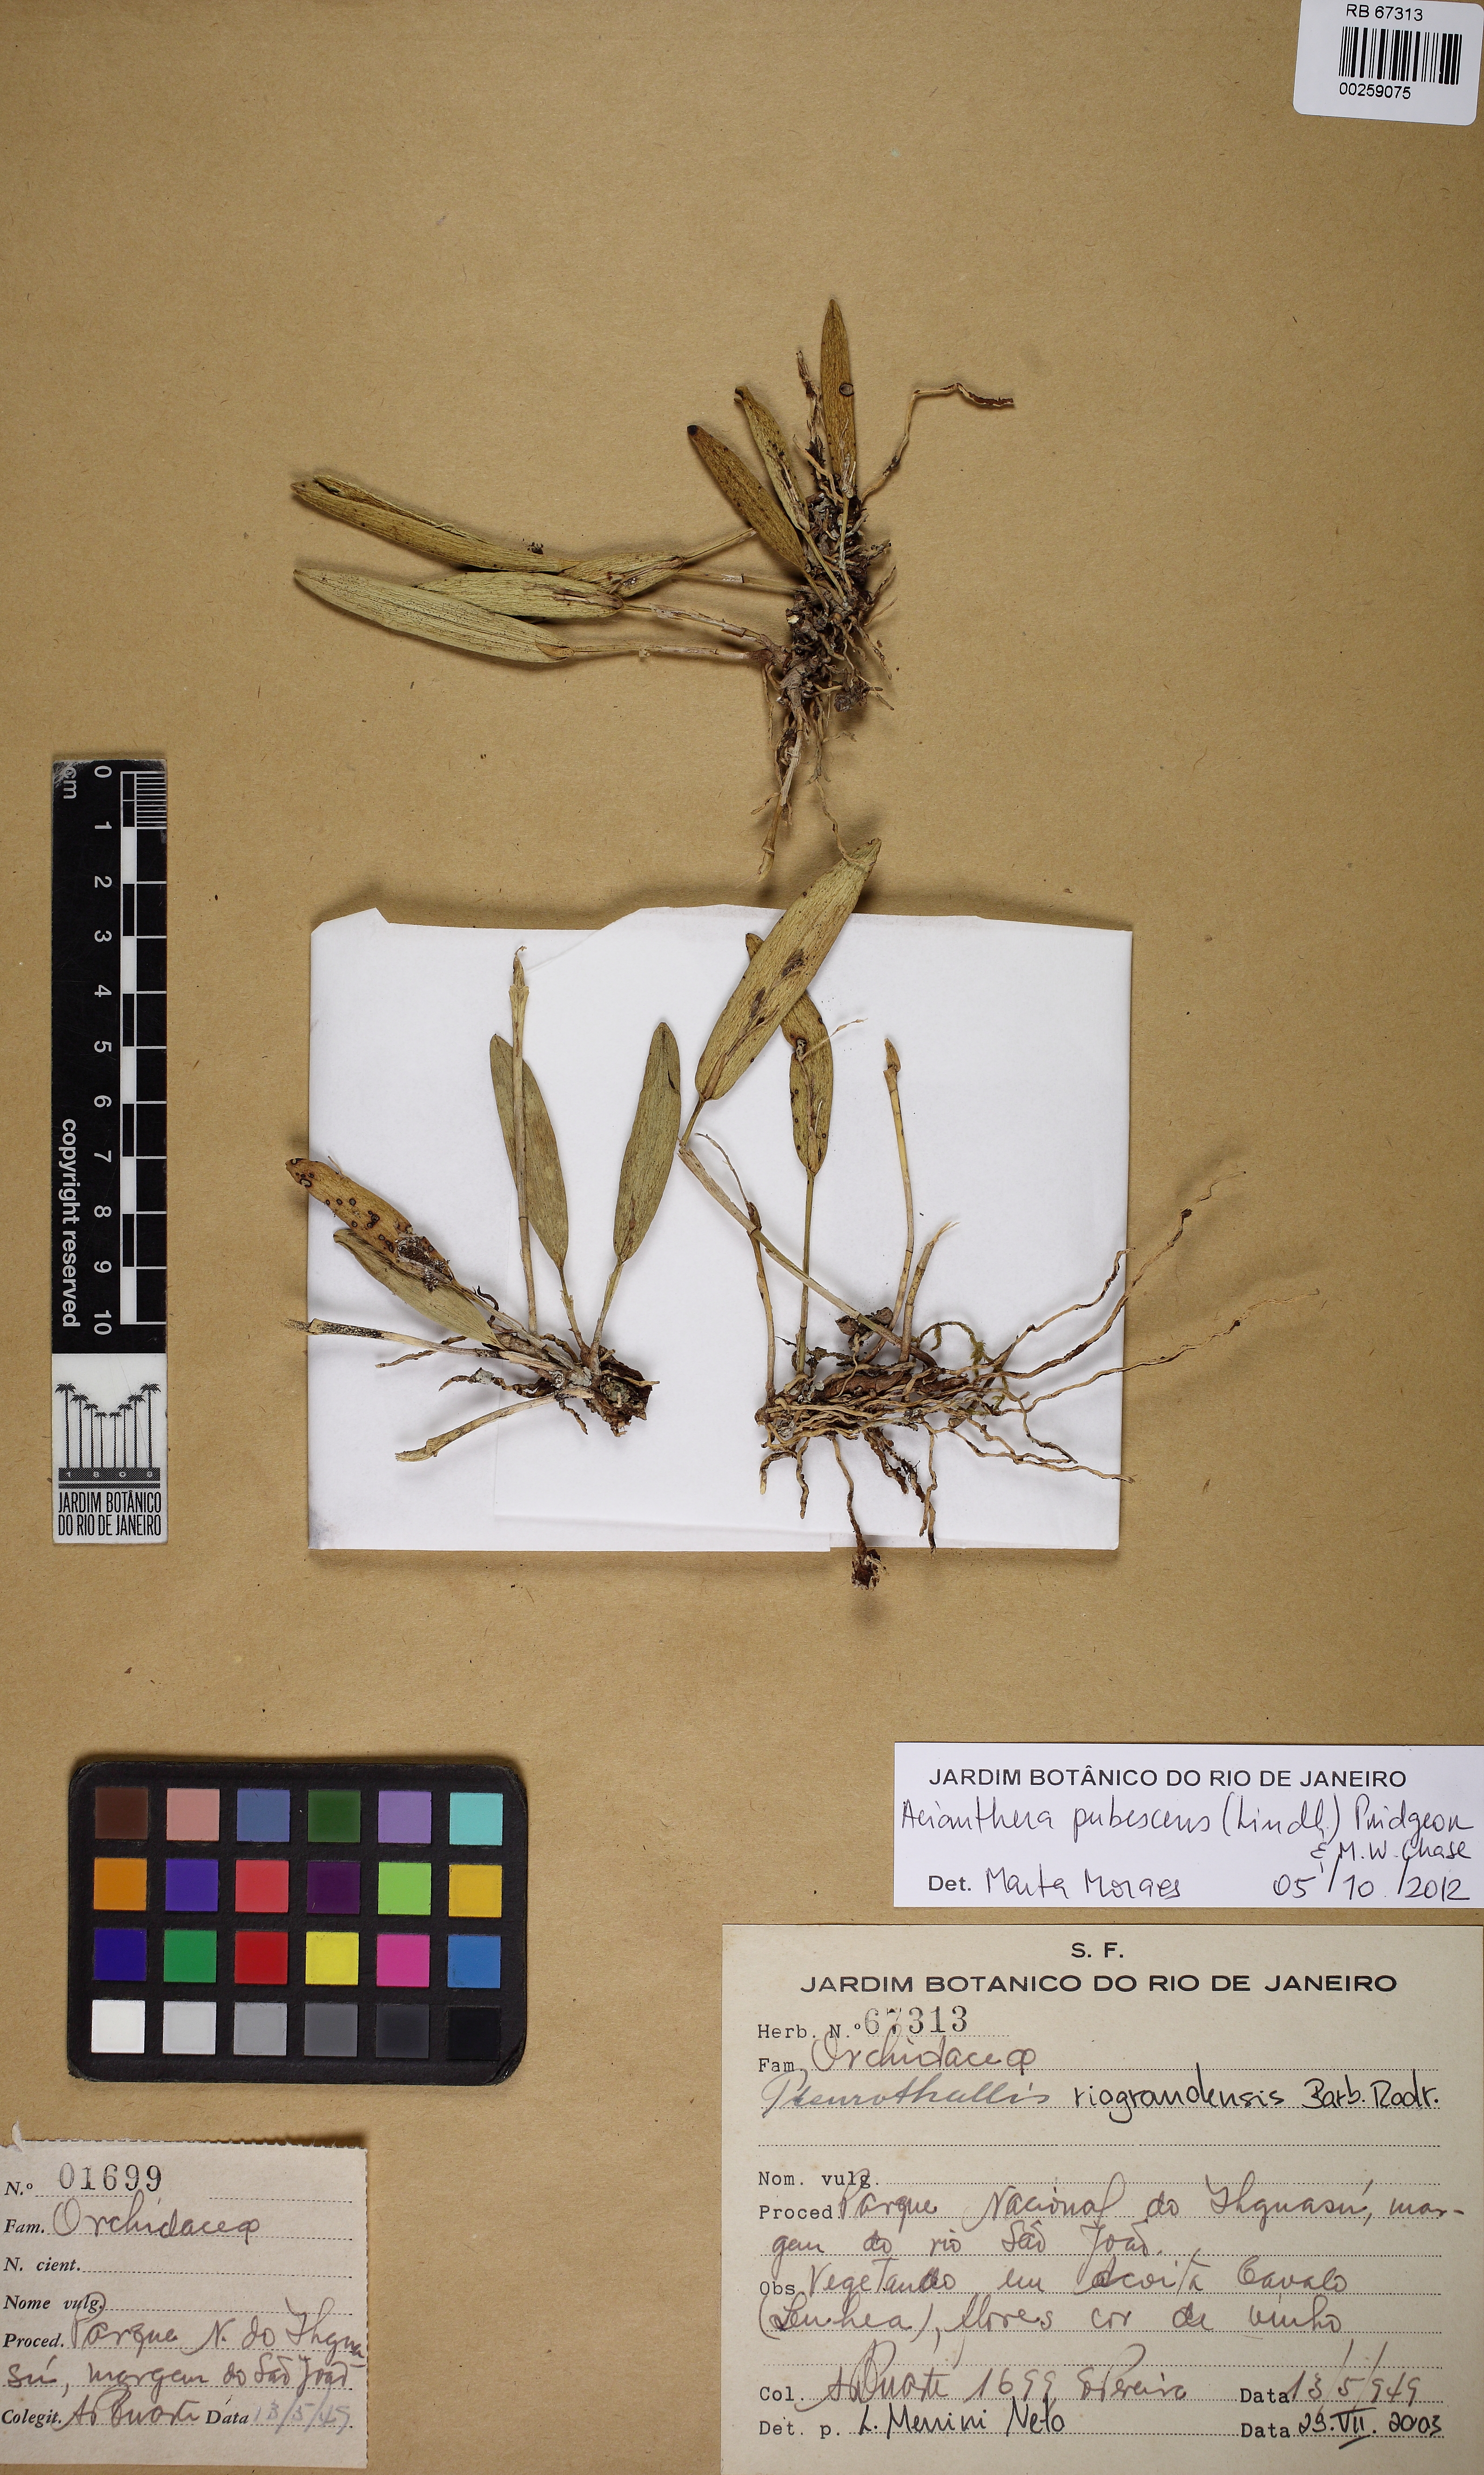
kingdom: Plantae
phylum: Tracheophyta
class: Liliopsida
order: Asparagales
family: Orchidaceae
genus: Acianthera
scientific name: Acianthera pubescens
